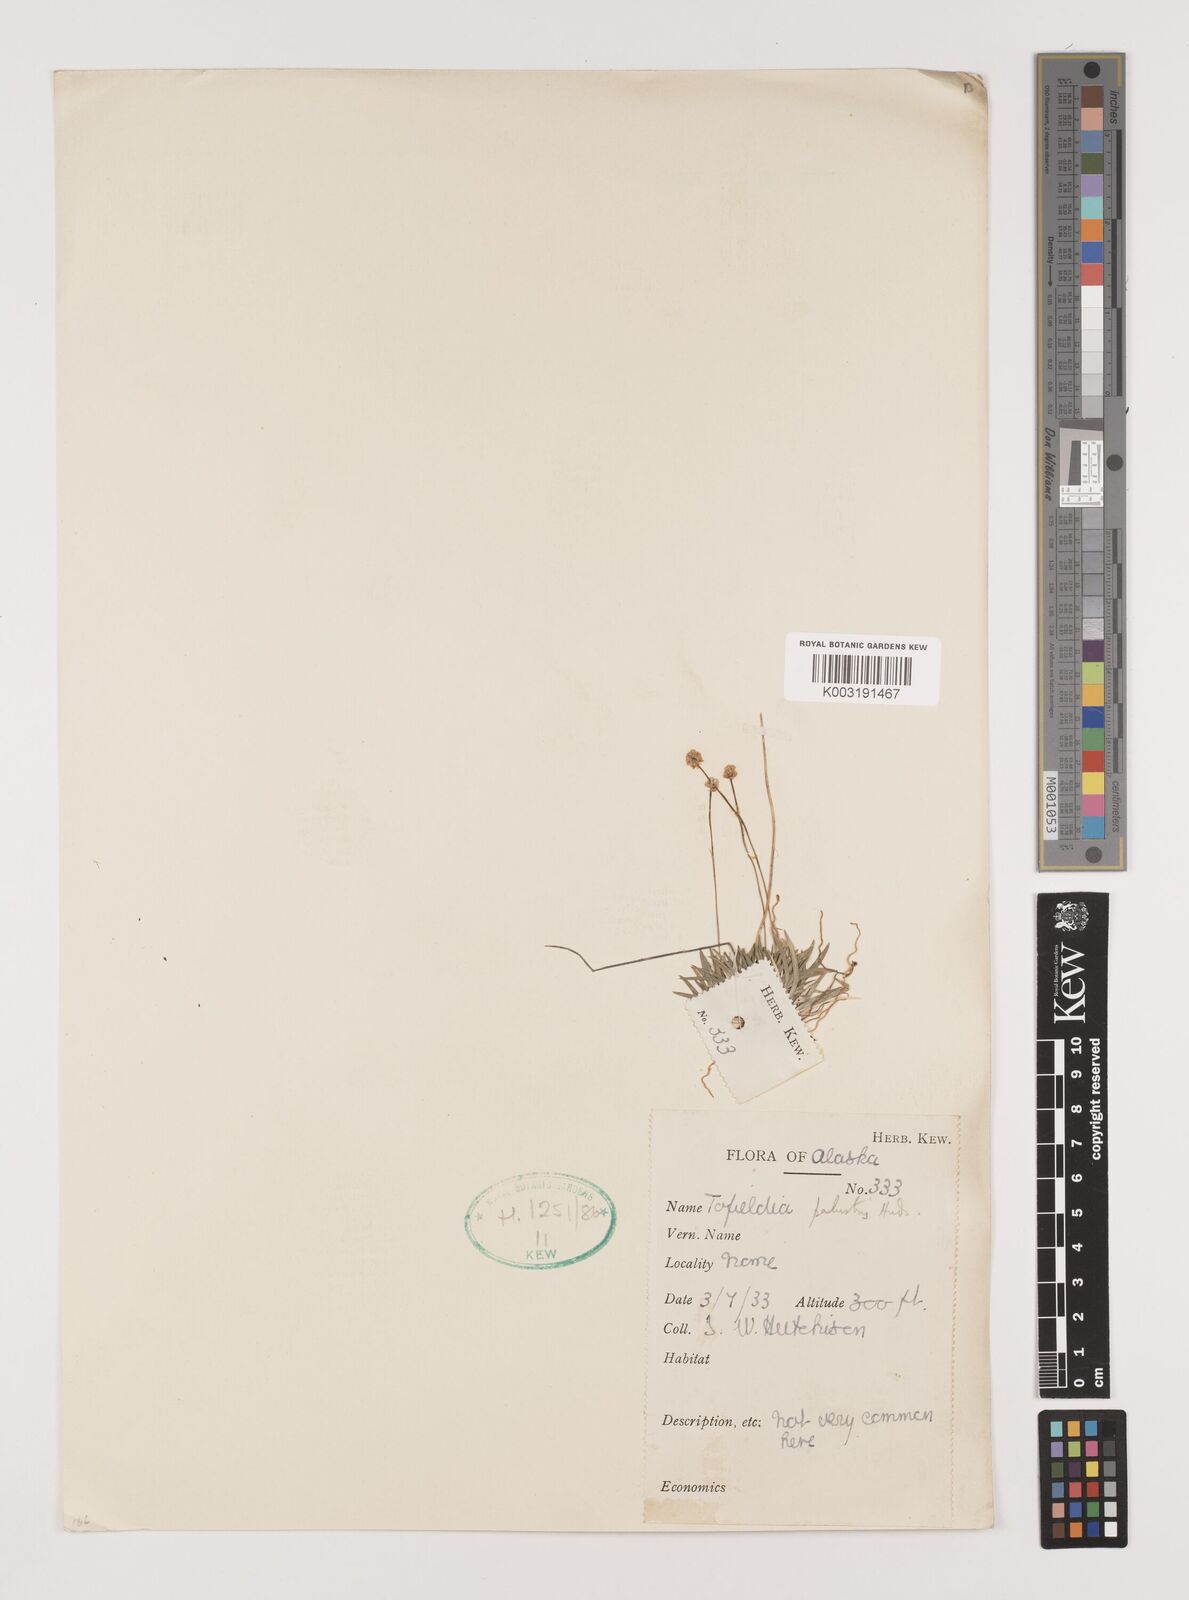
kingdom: Plantae
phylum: Tracheophyta
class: Liliopsida
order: Alismatales
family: Tofieldiaceae
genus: Tofieldia
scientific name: Tofieldia calyculata
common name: German-asphodel
